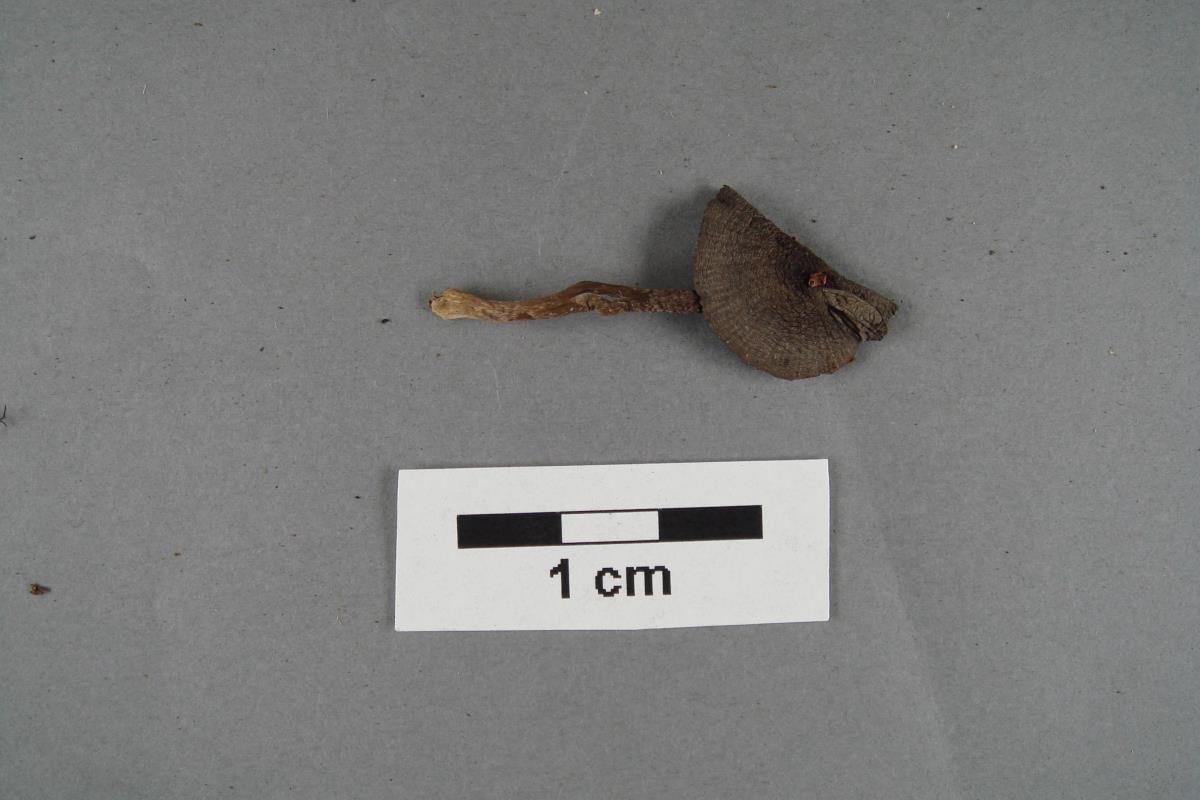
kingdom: Fungi
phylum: Basidiomycota
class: Agaricomycetes
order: Agaricales
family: Pluteaceae
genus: Pluteus
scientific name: Pluteus
